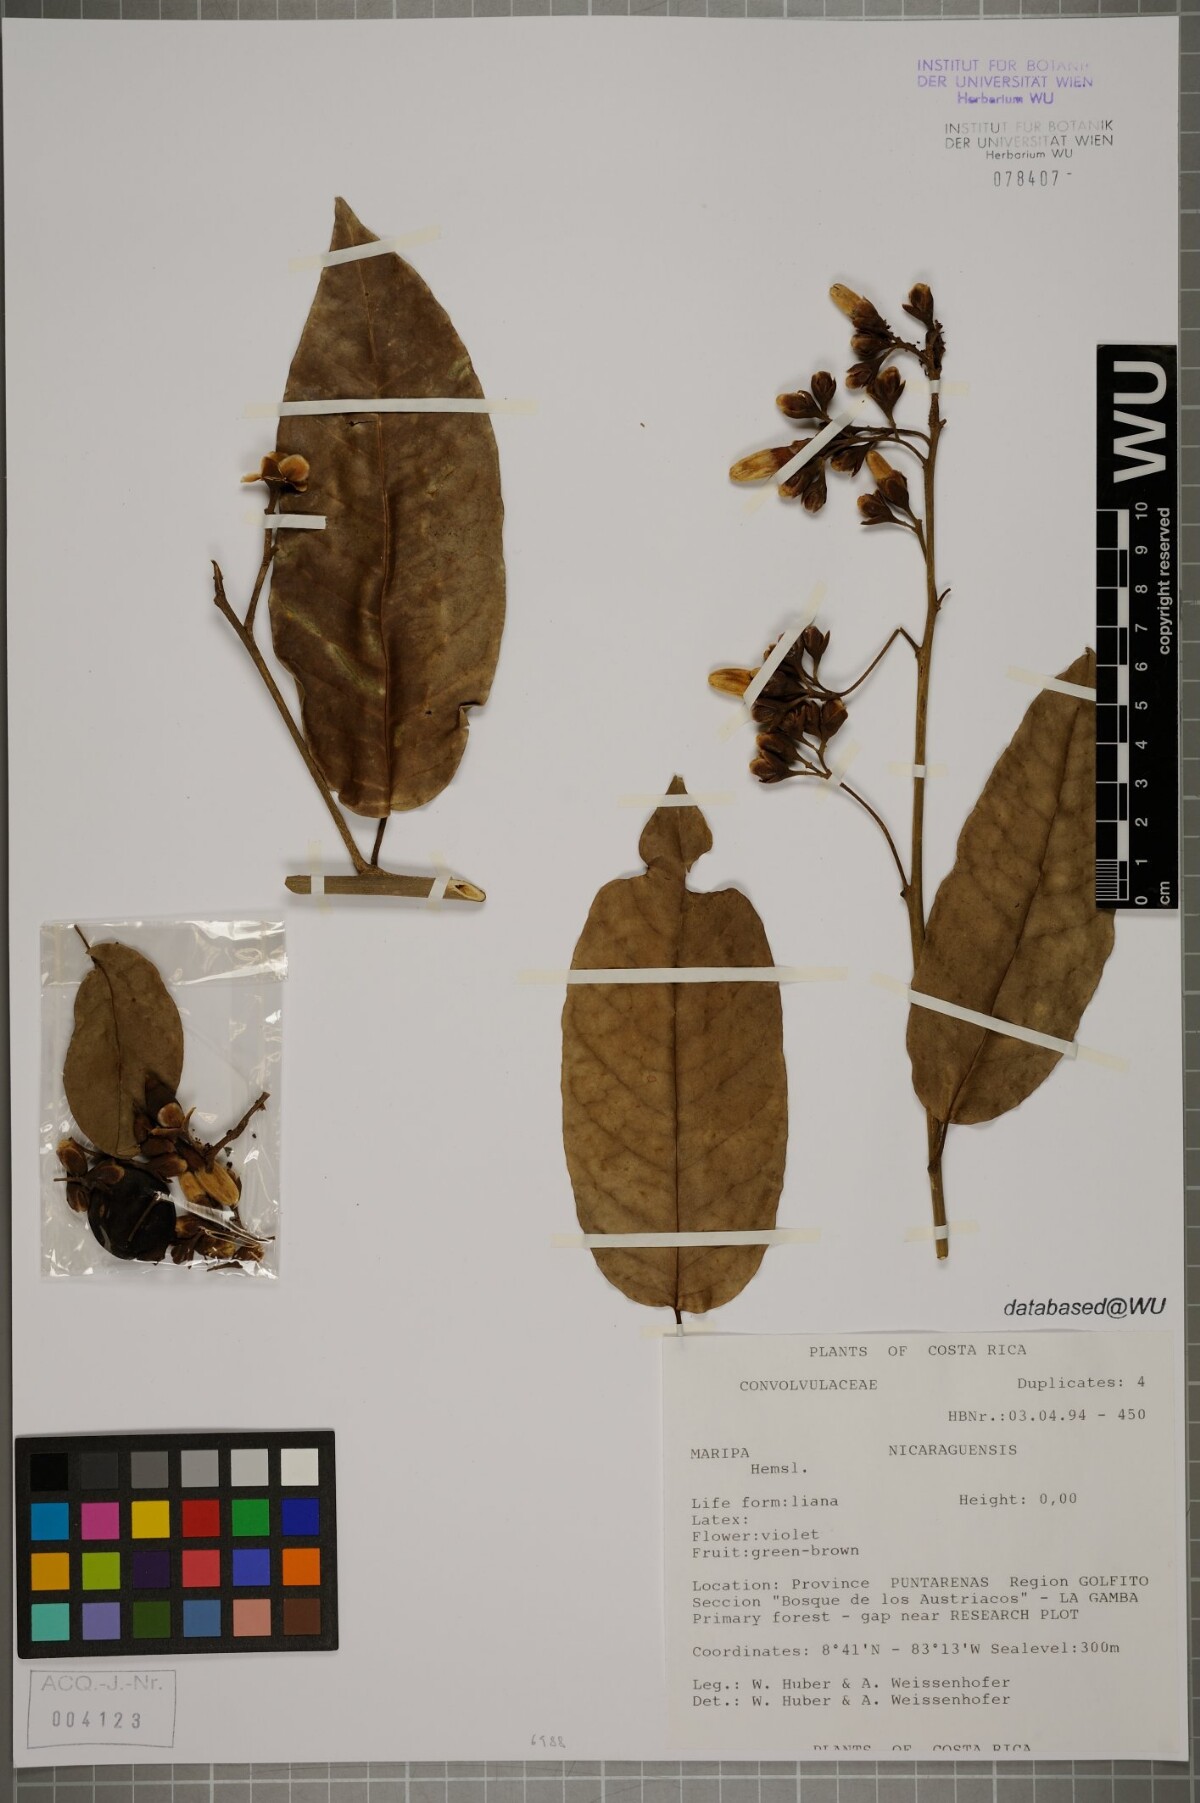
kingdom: Plantae
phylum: Tracheophyta
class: Magnoliopsida
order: Solanales
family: Convolvulaceae
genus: Maripa
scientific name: Maripa nicaraguensis
